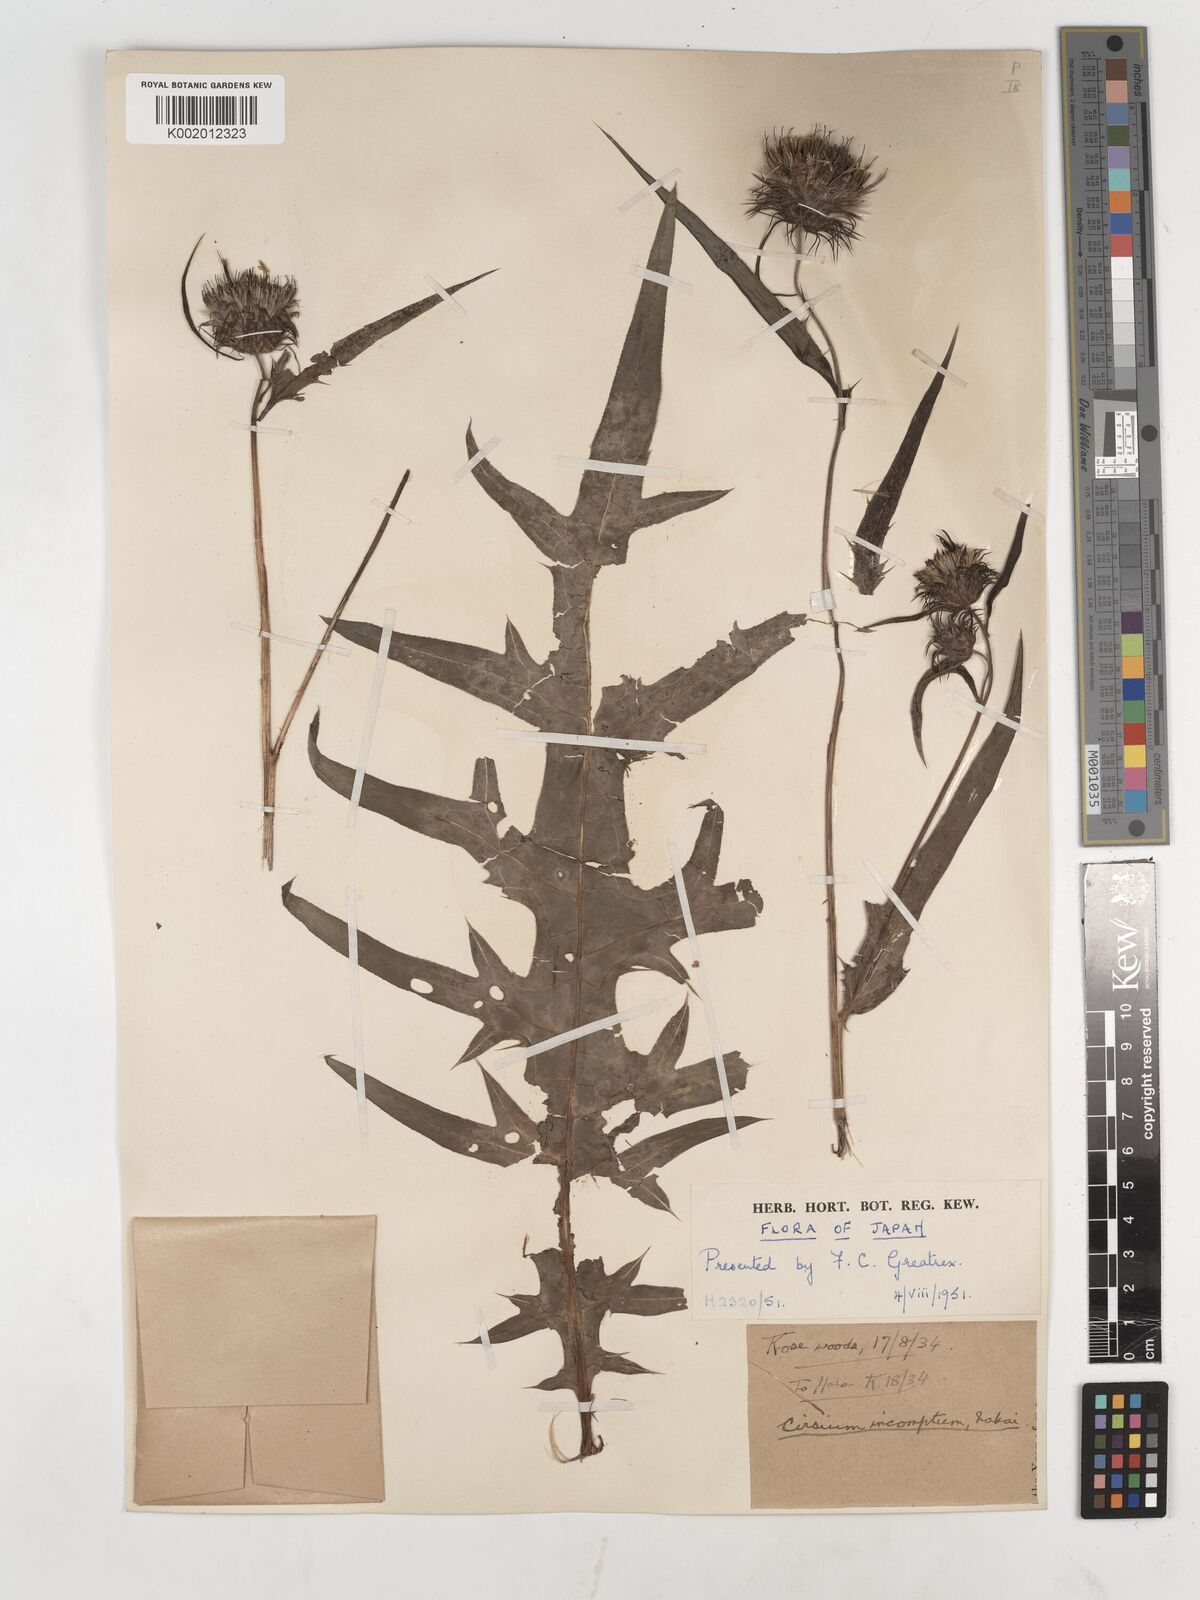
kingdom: Plantae
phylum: Tracheophyta
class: Magnoliopsida
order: Asterales
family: Asteraceae
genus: Cirsium
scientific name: Cirsium suffultum
